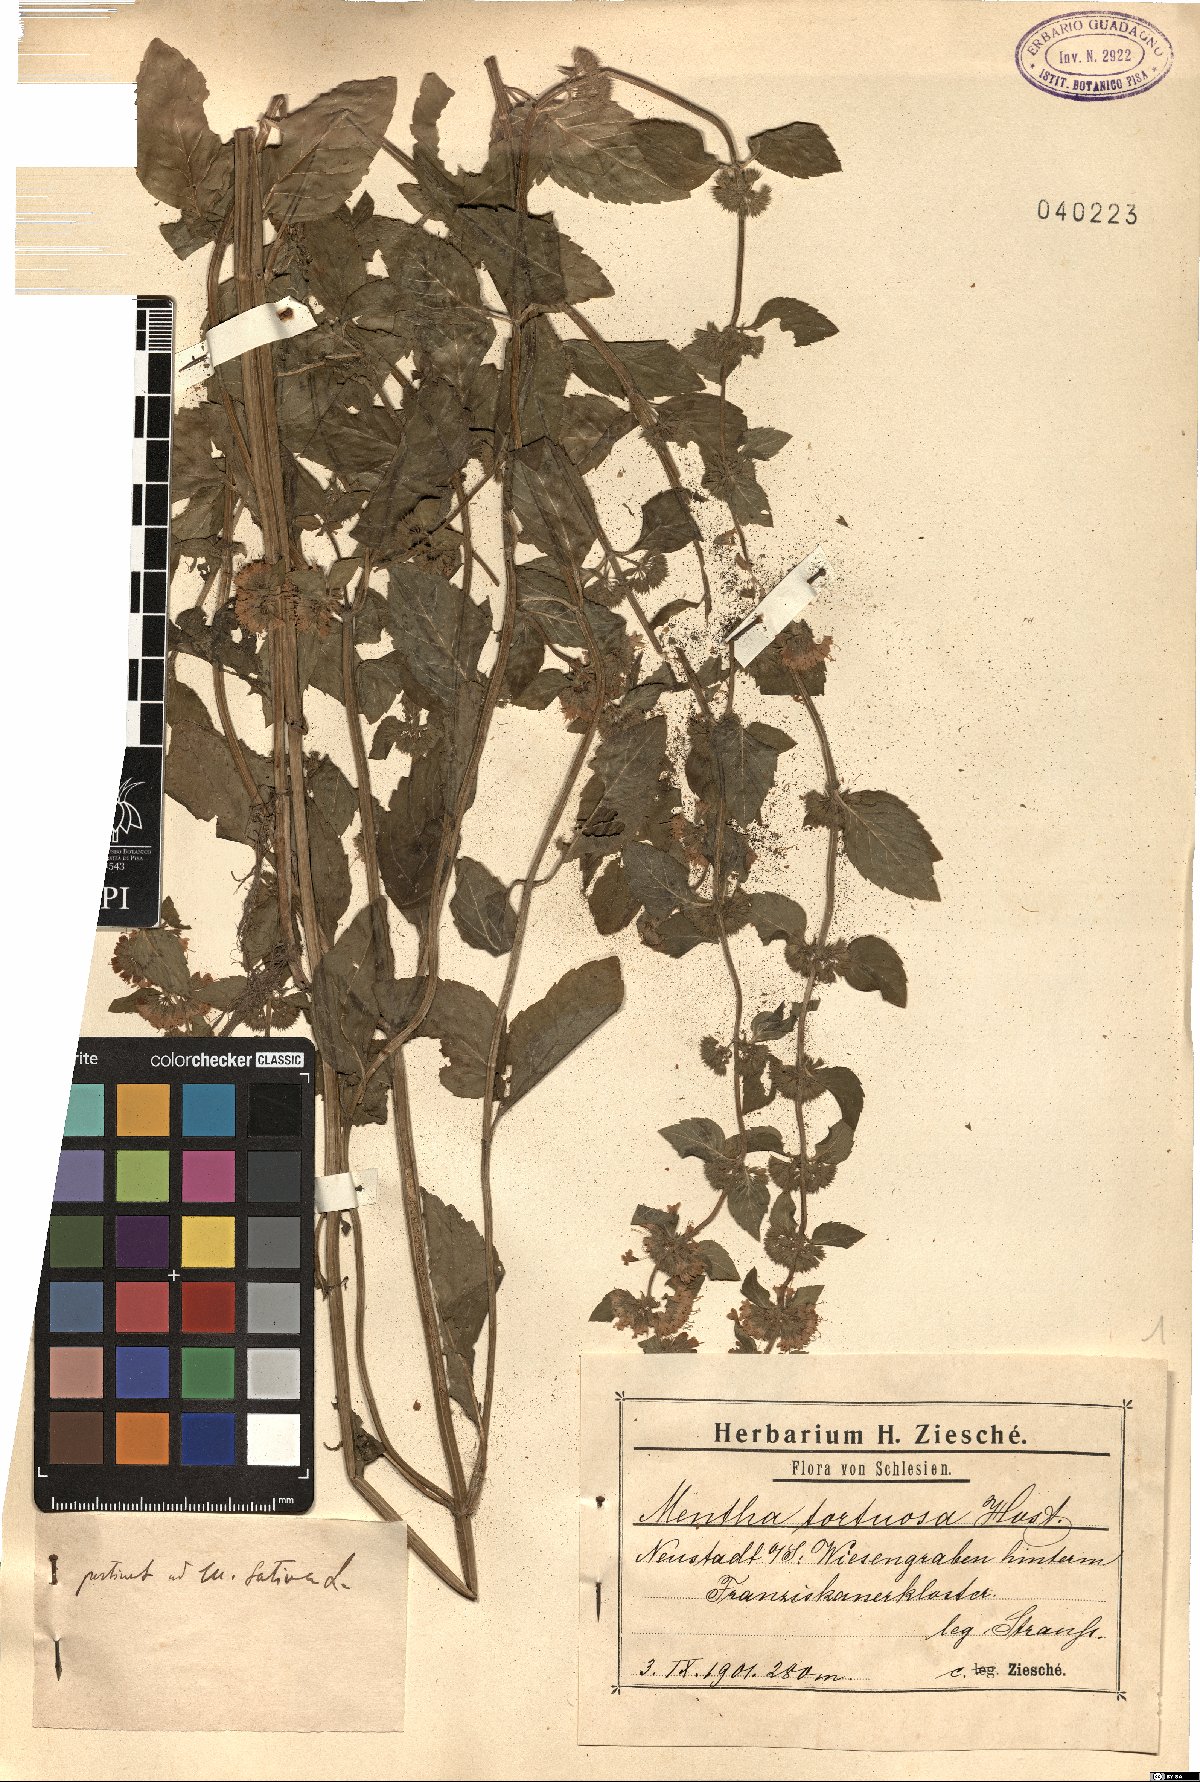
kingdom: Plantae
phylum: Tracheophyta
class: Magnoliopsida
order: Lamiales
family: Lamiaceae
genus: Mentha
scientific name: Mentha verticillata
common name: Mint
